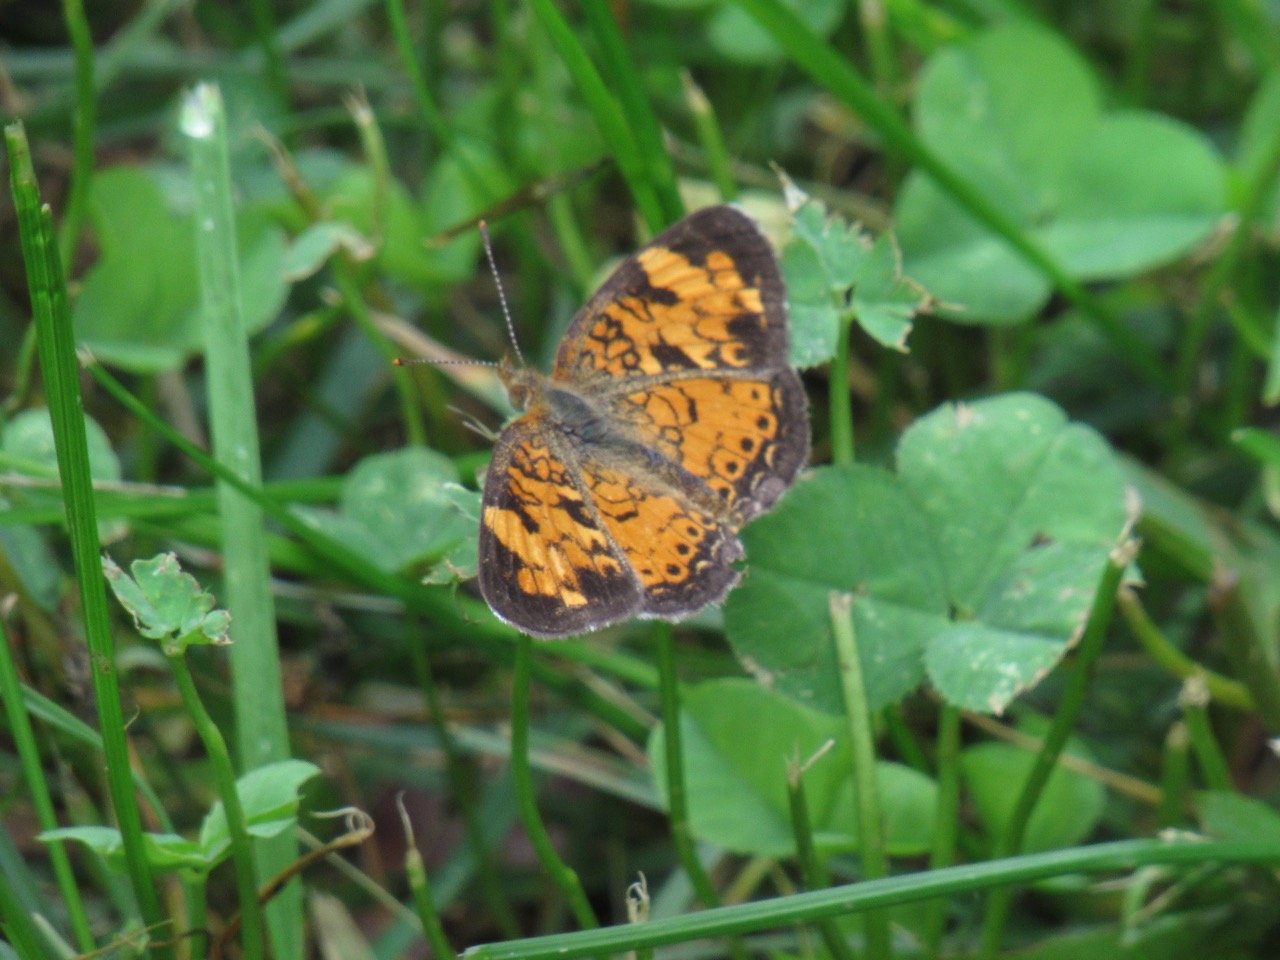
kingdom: Animalia
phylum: Arthropoda
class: Insecta
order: Lepidoptera
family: Nymphalidae
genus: Phyciodes
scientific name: Phyciodes tharos
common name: Pearl Crescent
